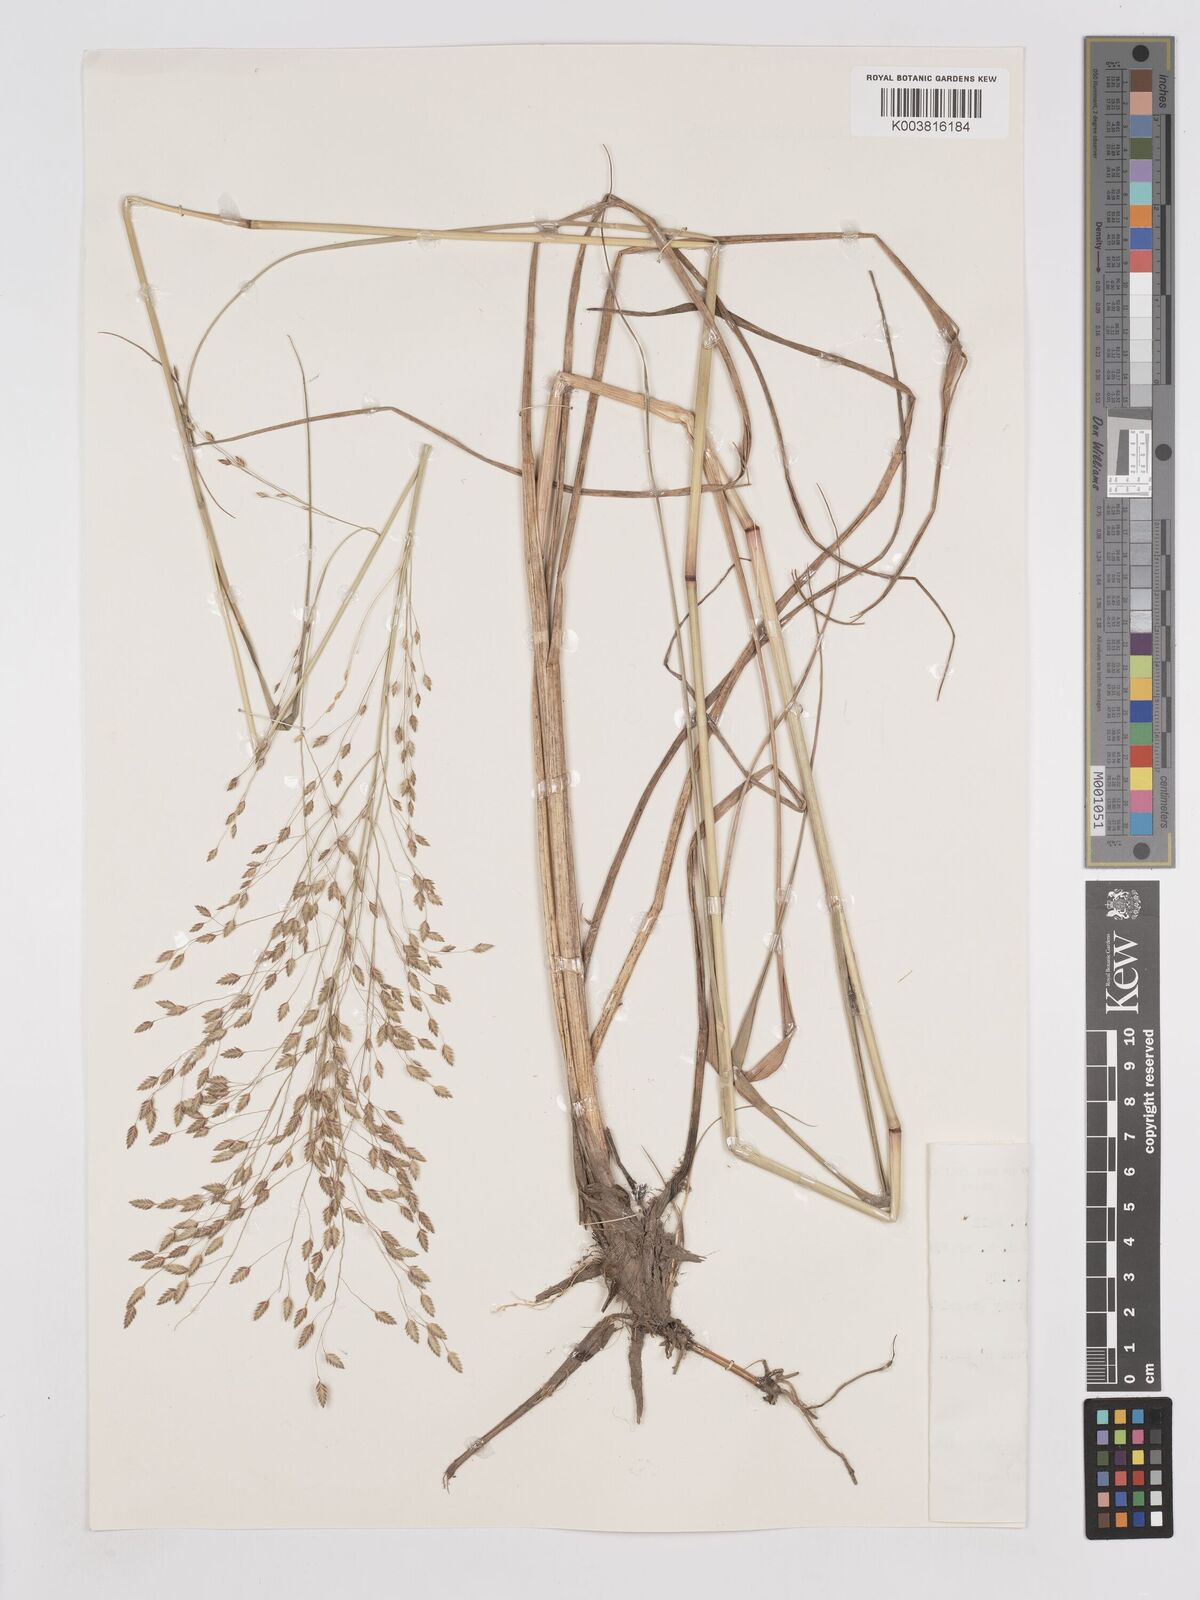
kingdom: Plantae
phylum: Tracheophyta
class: Liliopsida
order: Poales
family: Poaceae
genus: Eragrostis
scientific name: Eragrostis chalarothyrsos
